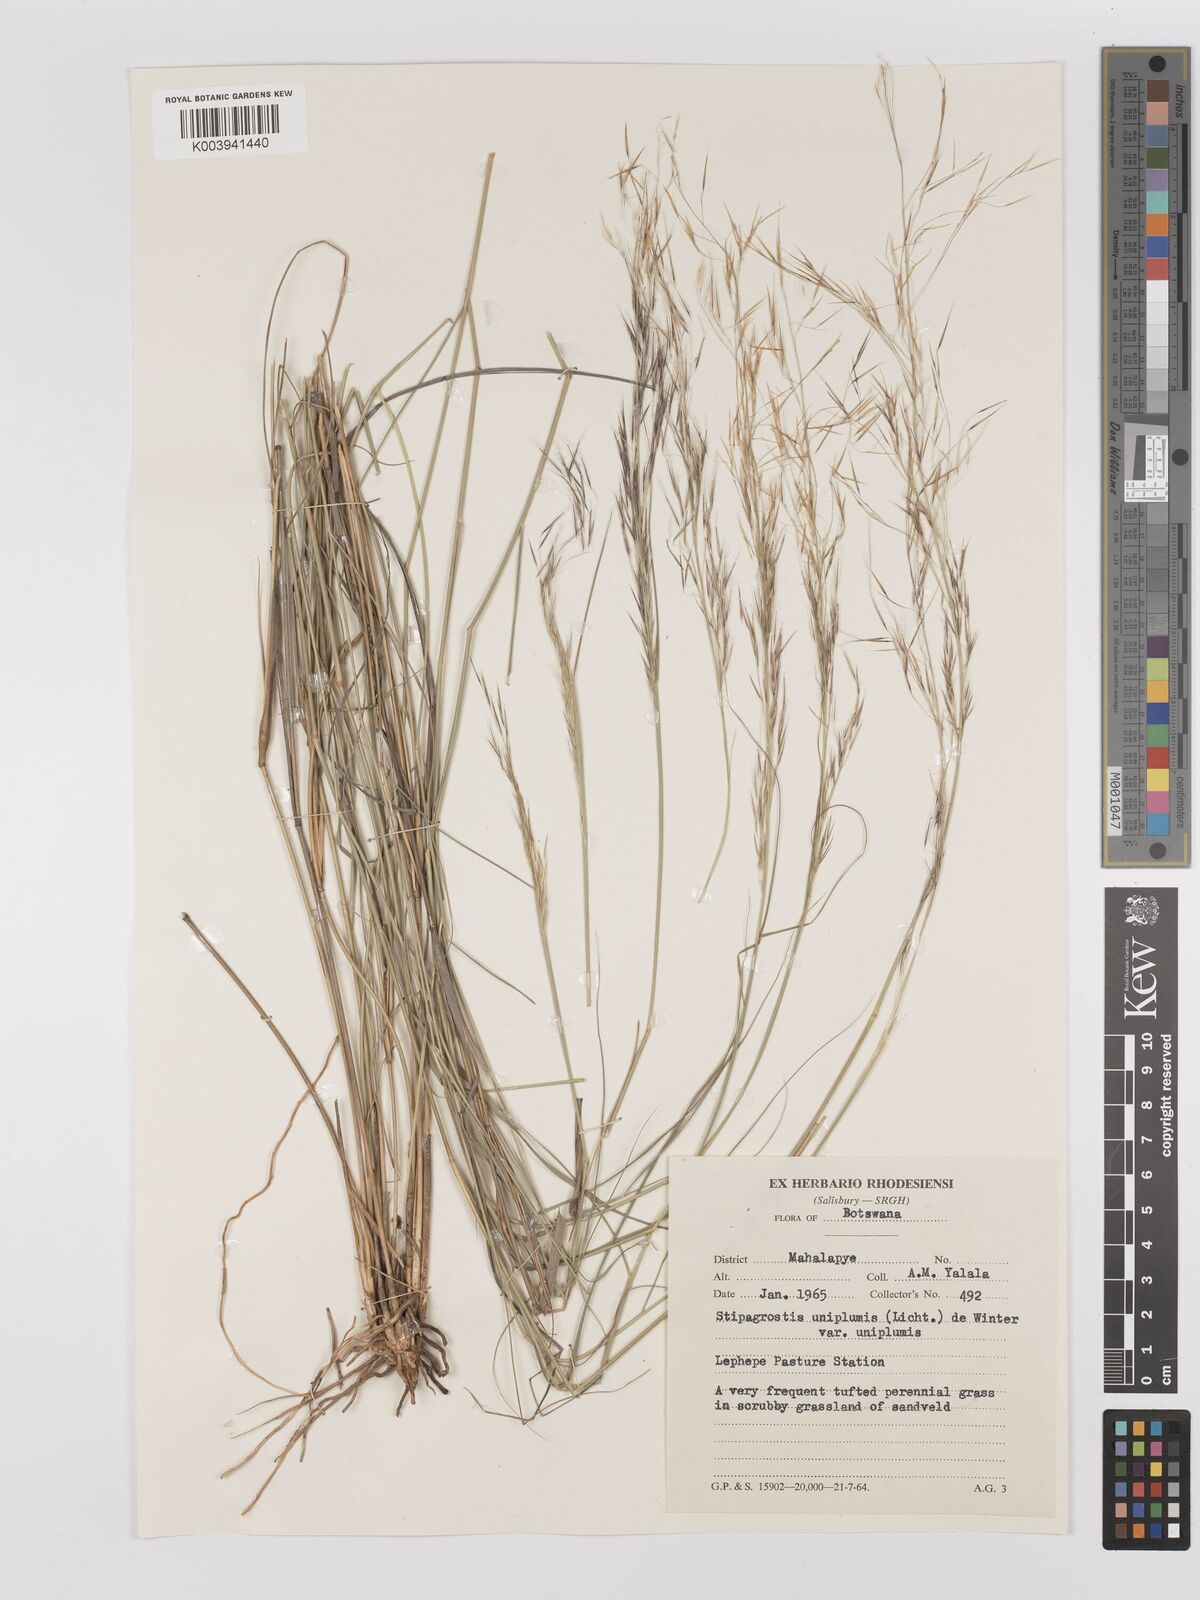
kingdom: Plantae
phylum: Tracheophyta
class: Liliopsida
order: Poales
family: Poaceae
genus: Stipagrostis
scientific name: Stipagrostis uniplumis
